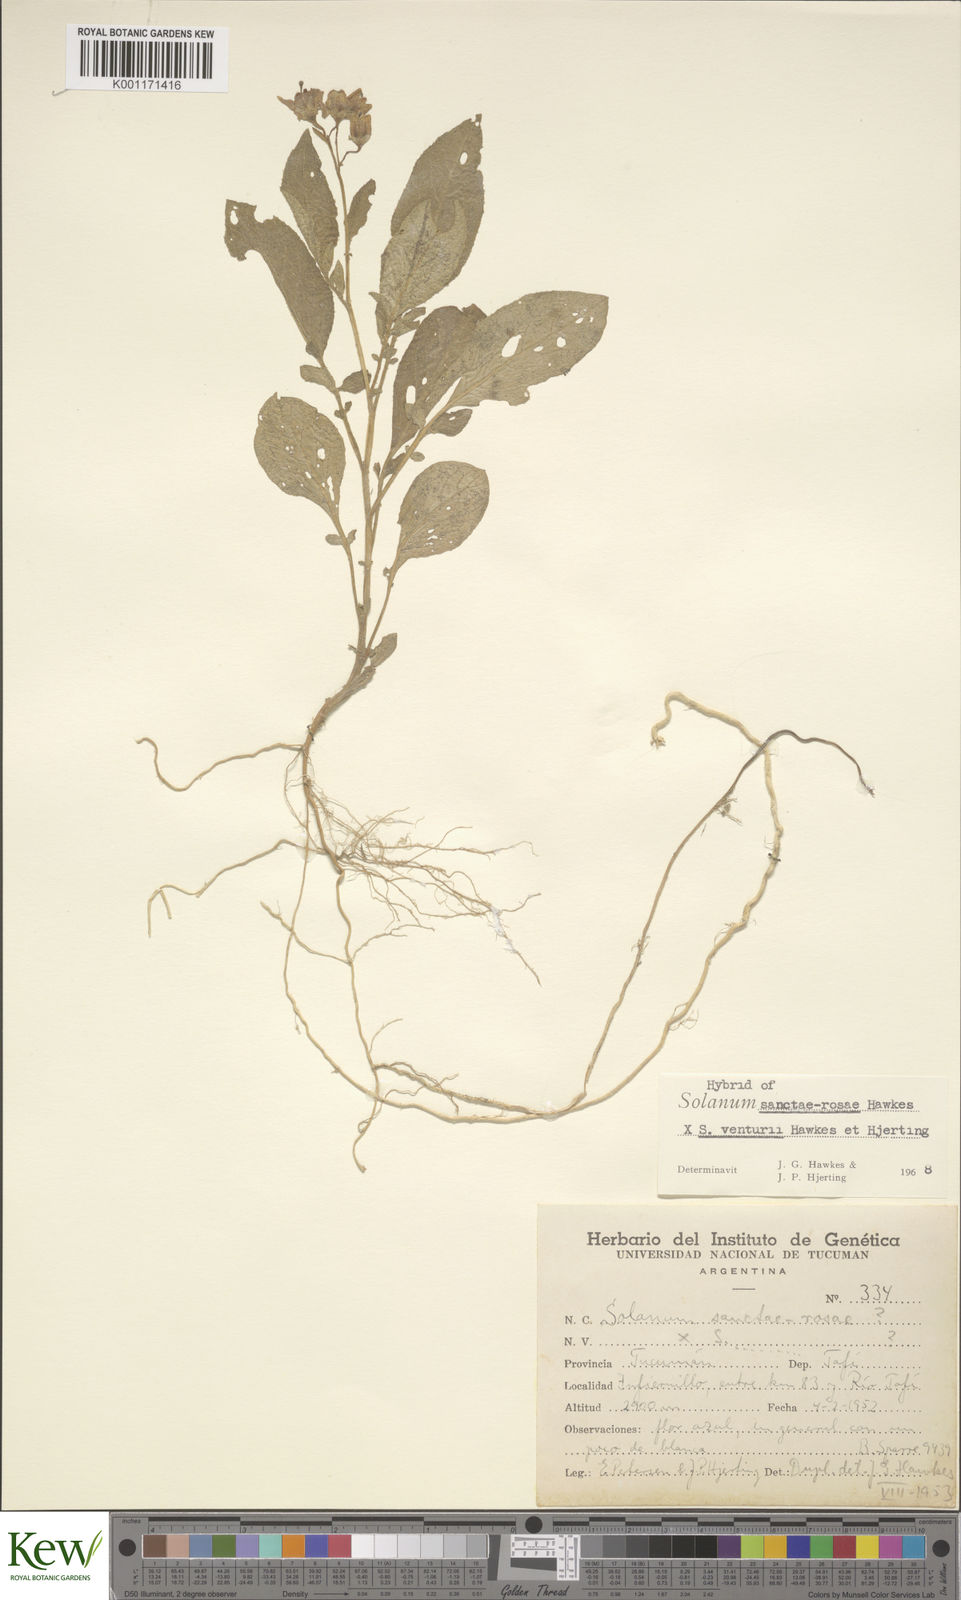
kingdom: Plantae
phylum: Tracheophyta
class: Magnoliopsida
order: Solanales
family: Solanaceae
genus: Solanum
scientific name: Solanum boliviense
